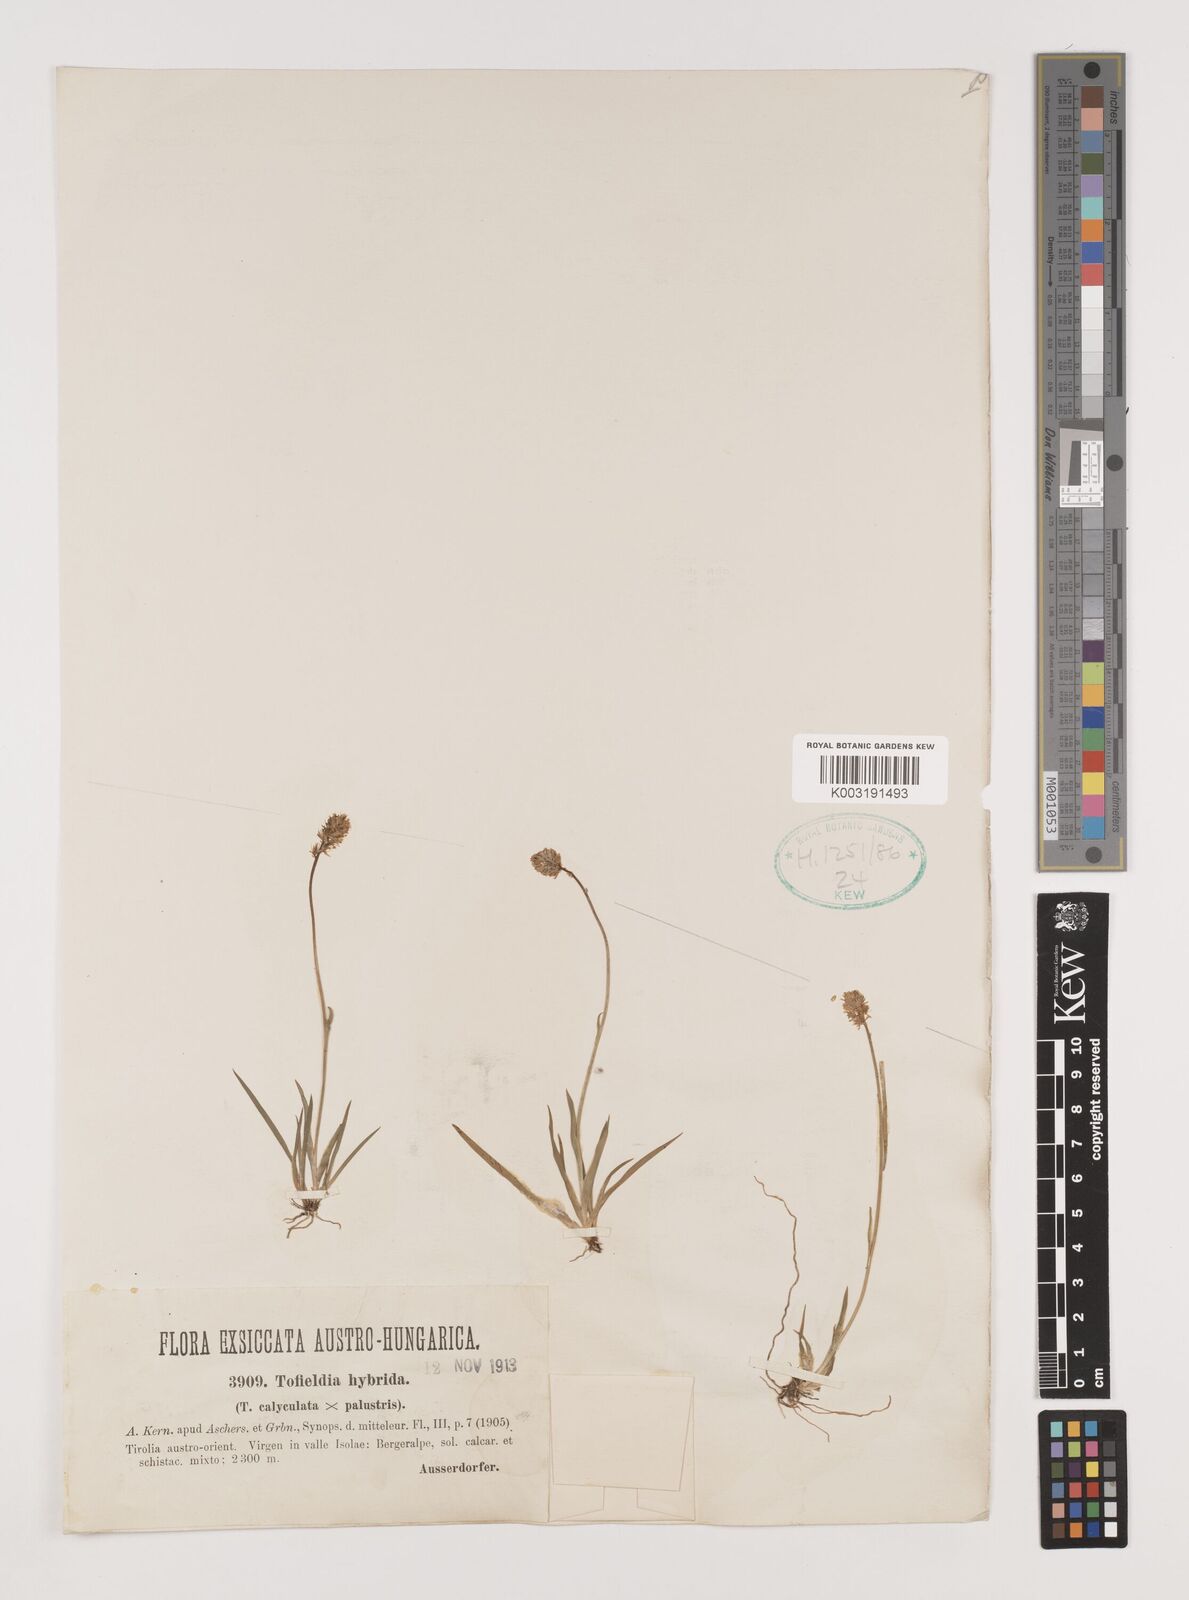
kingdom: Plantae
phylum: Tracheophyta
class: Liliopsida
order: Alismatales
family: Tofieldiaceae
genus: Tofieldia
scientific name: Tofieldia
